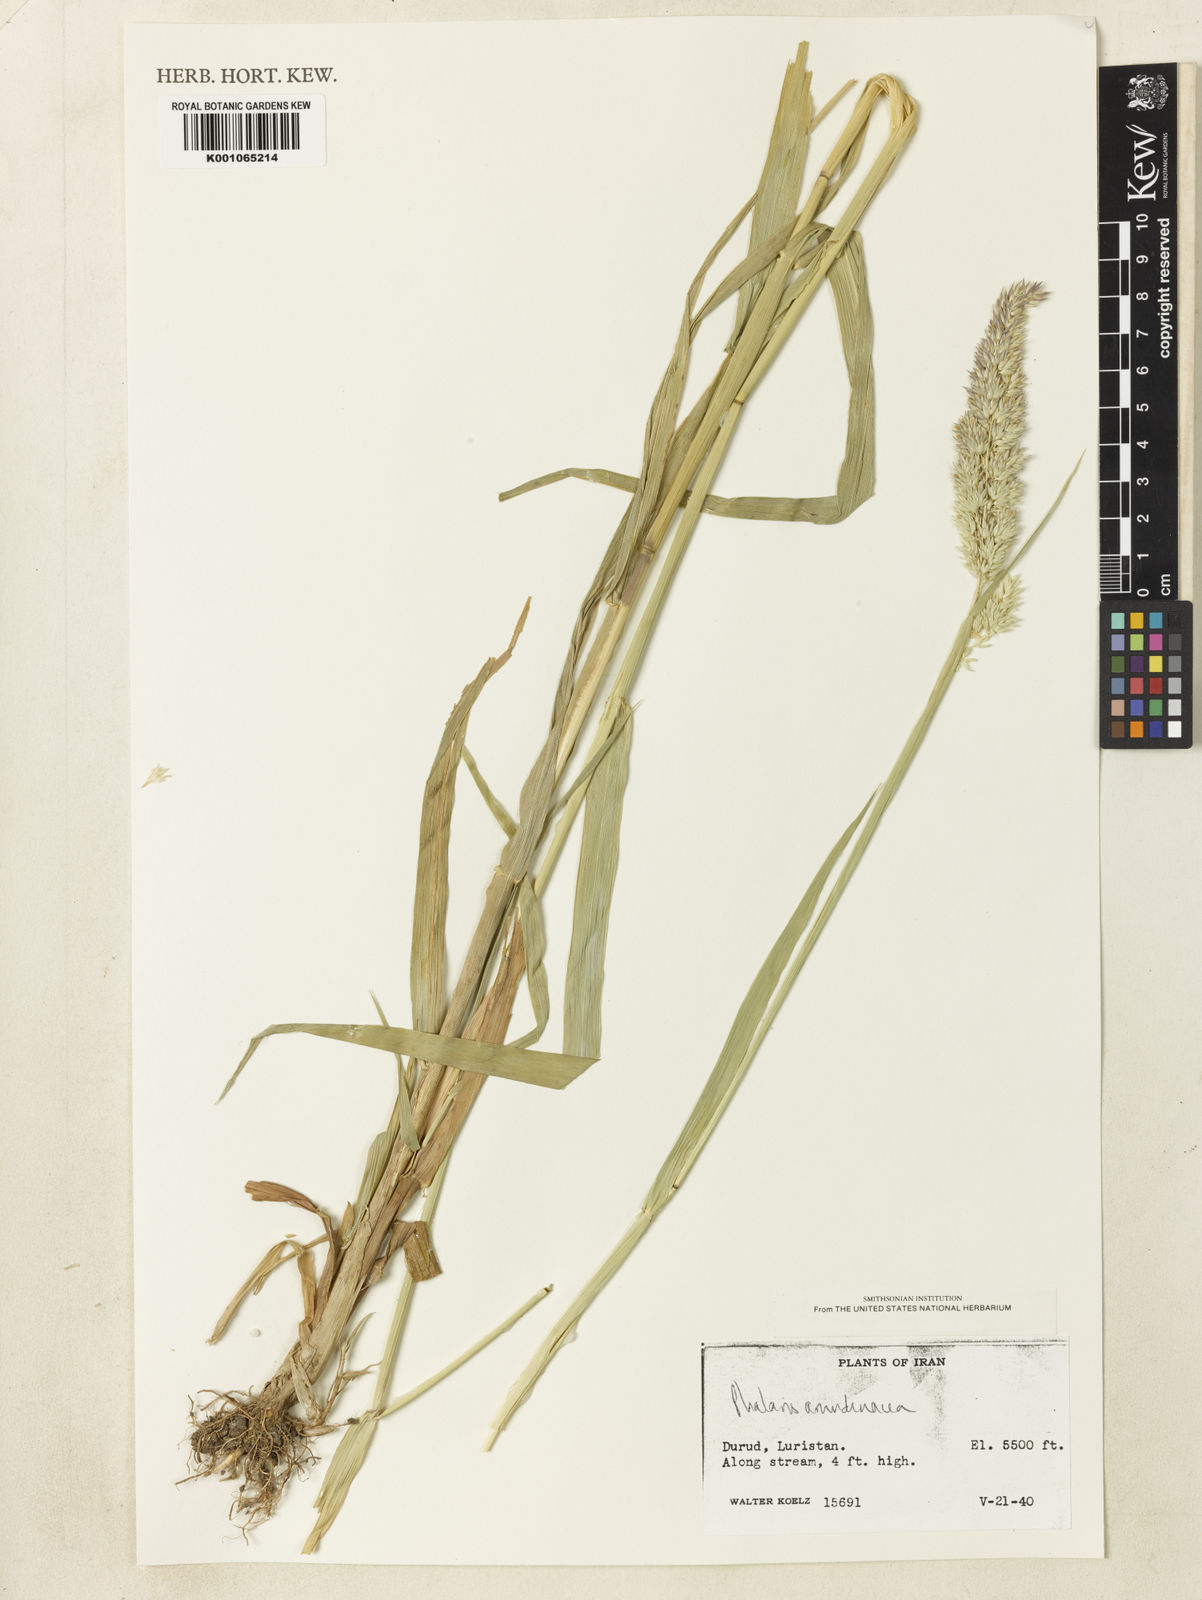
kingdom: Plantae
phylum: Tracheophyta
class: Liliopsida
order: Poales
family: Poaceae
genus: Phalaris
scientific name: Phalaris arundinacea
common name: Reed canary-grass
